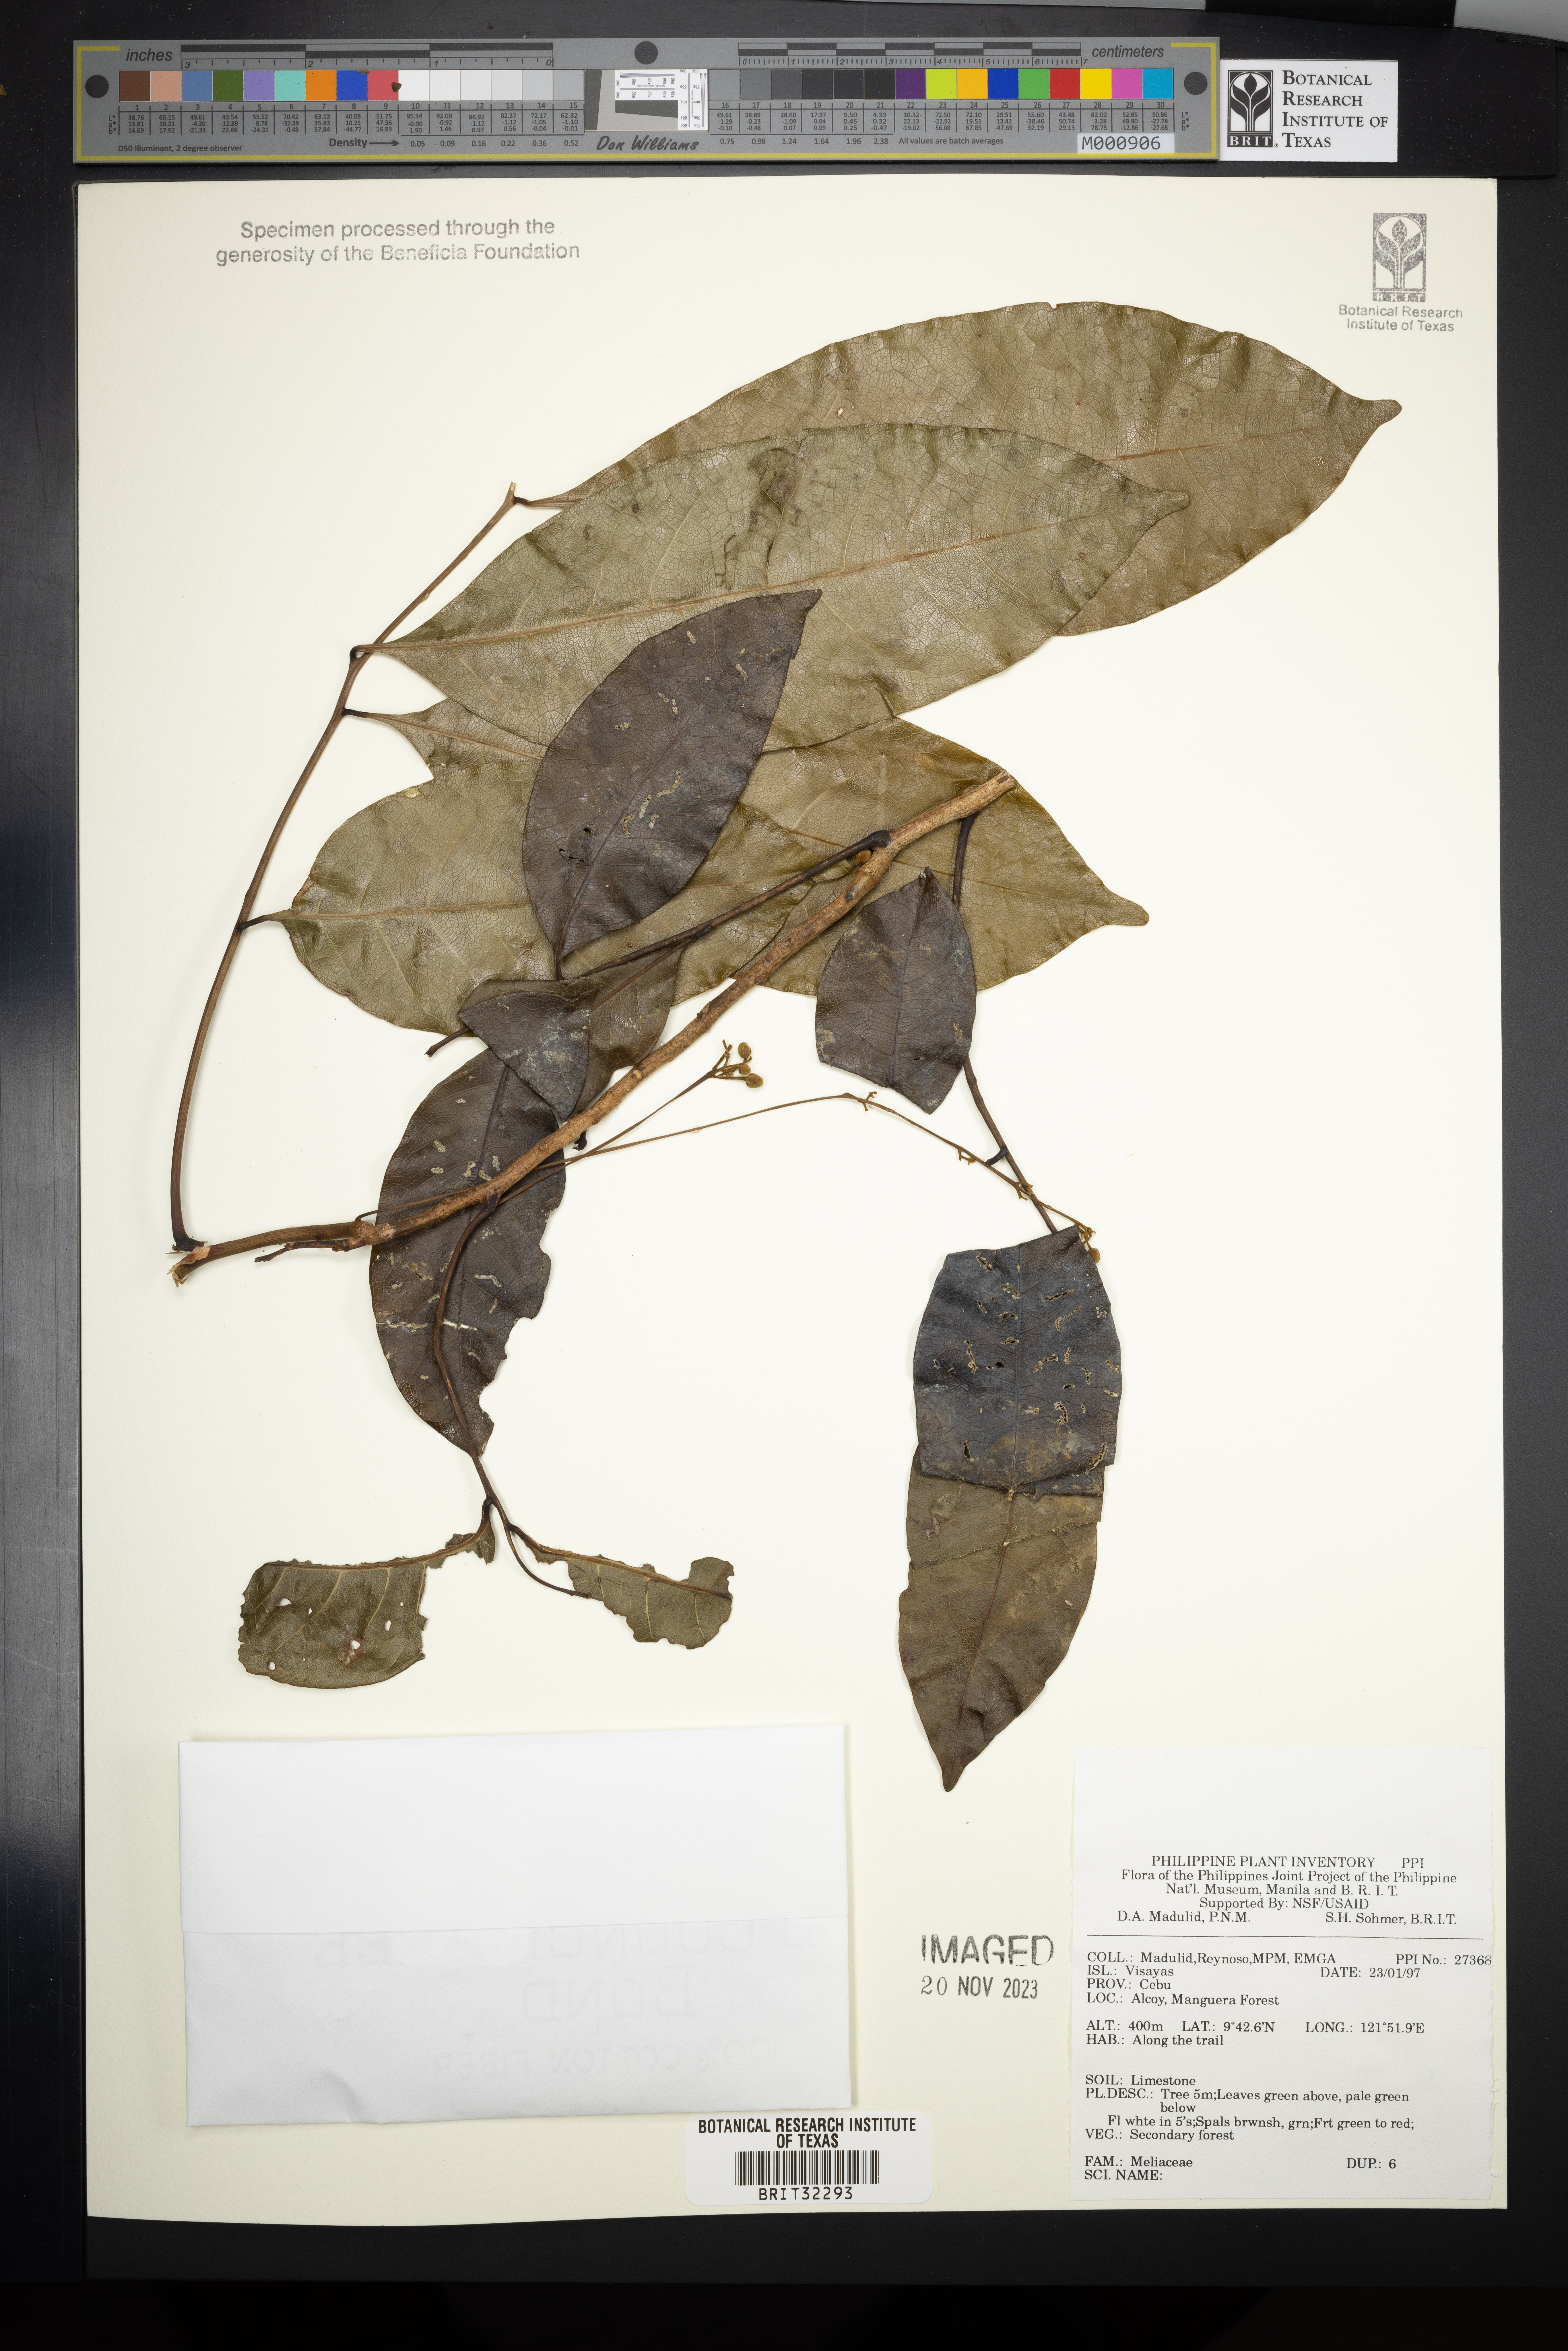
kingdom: Plantae
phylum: Tracheophyta
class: Magnoliopsida
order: Sapindales
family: Meliaceae
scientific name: Meliaceae
